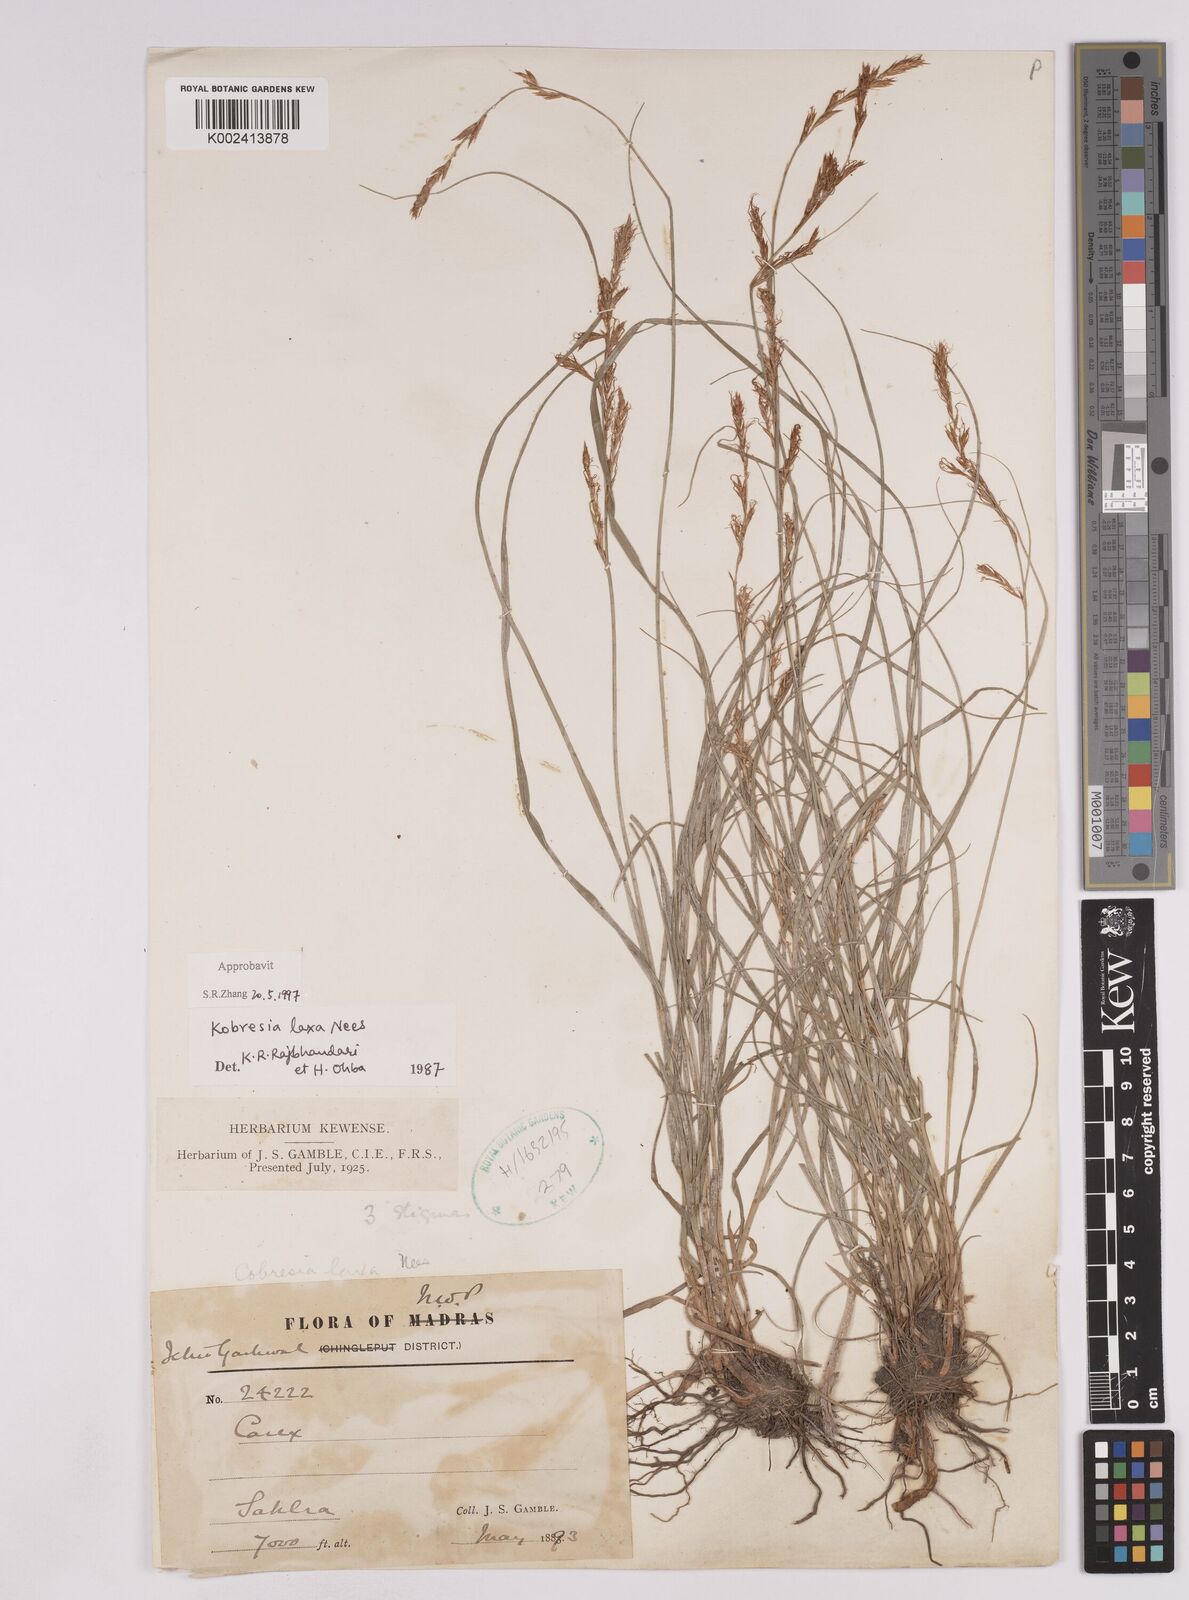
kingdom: Plantae
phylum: Tracheophyta
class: Liliopsida
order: Poales
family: Cyperaceae
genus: Carex
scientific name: Carex
